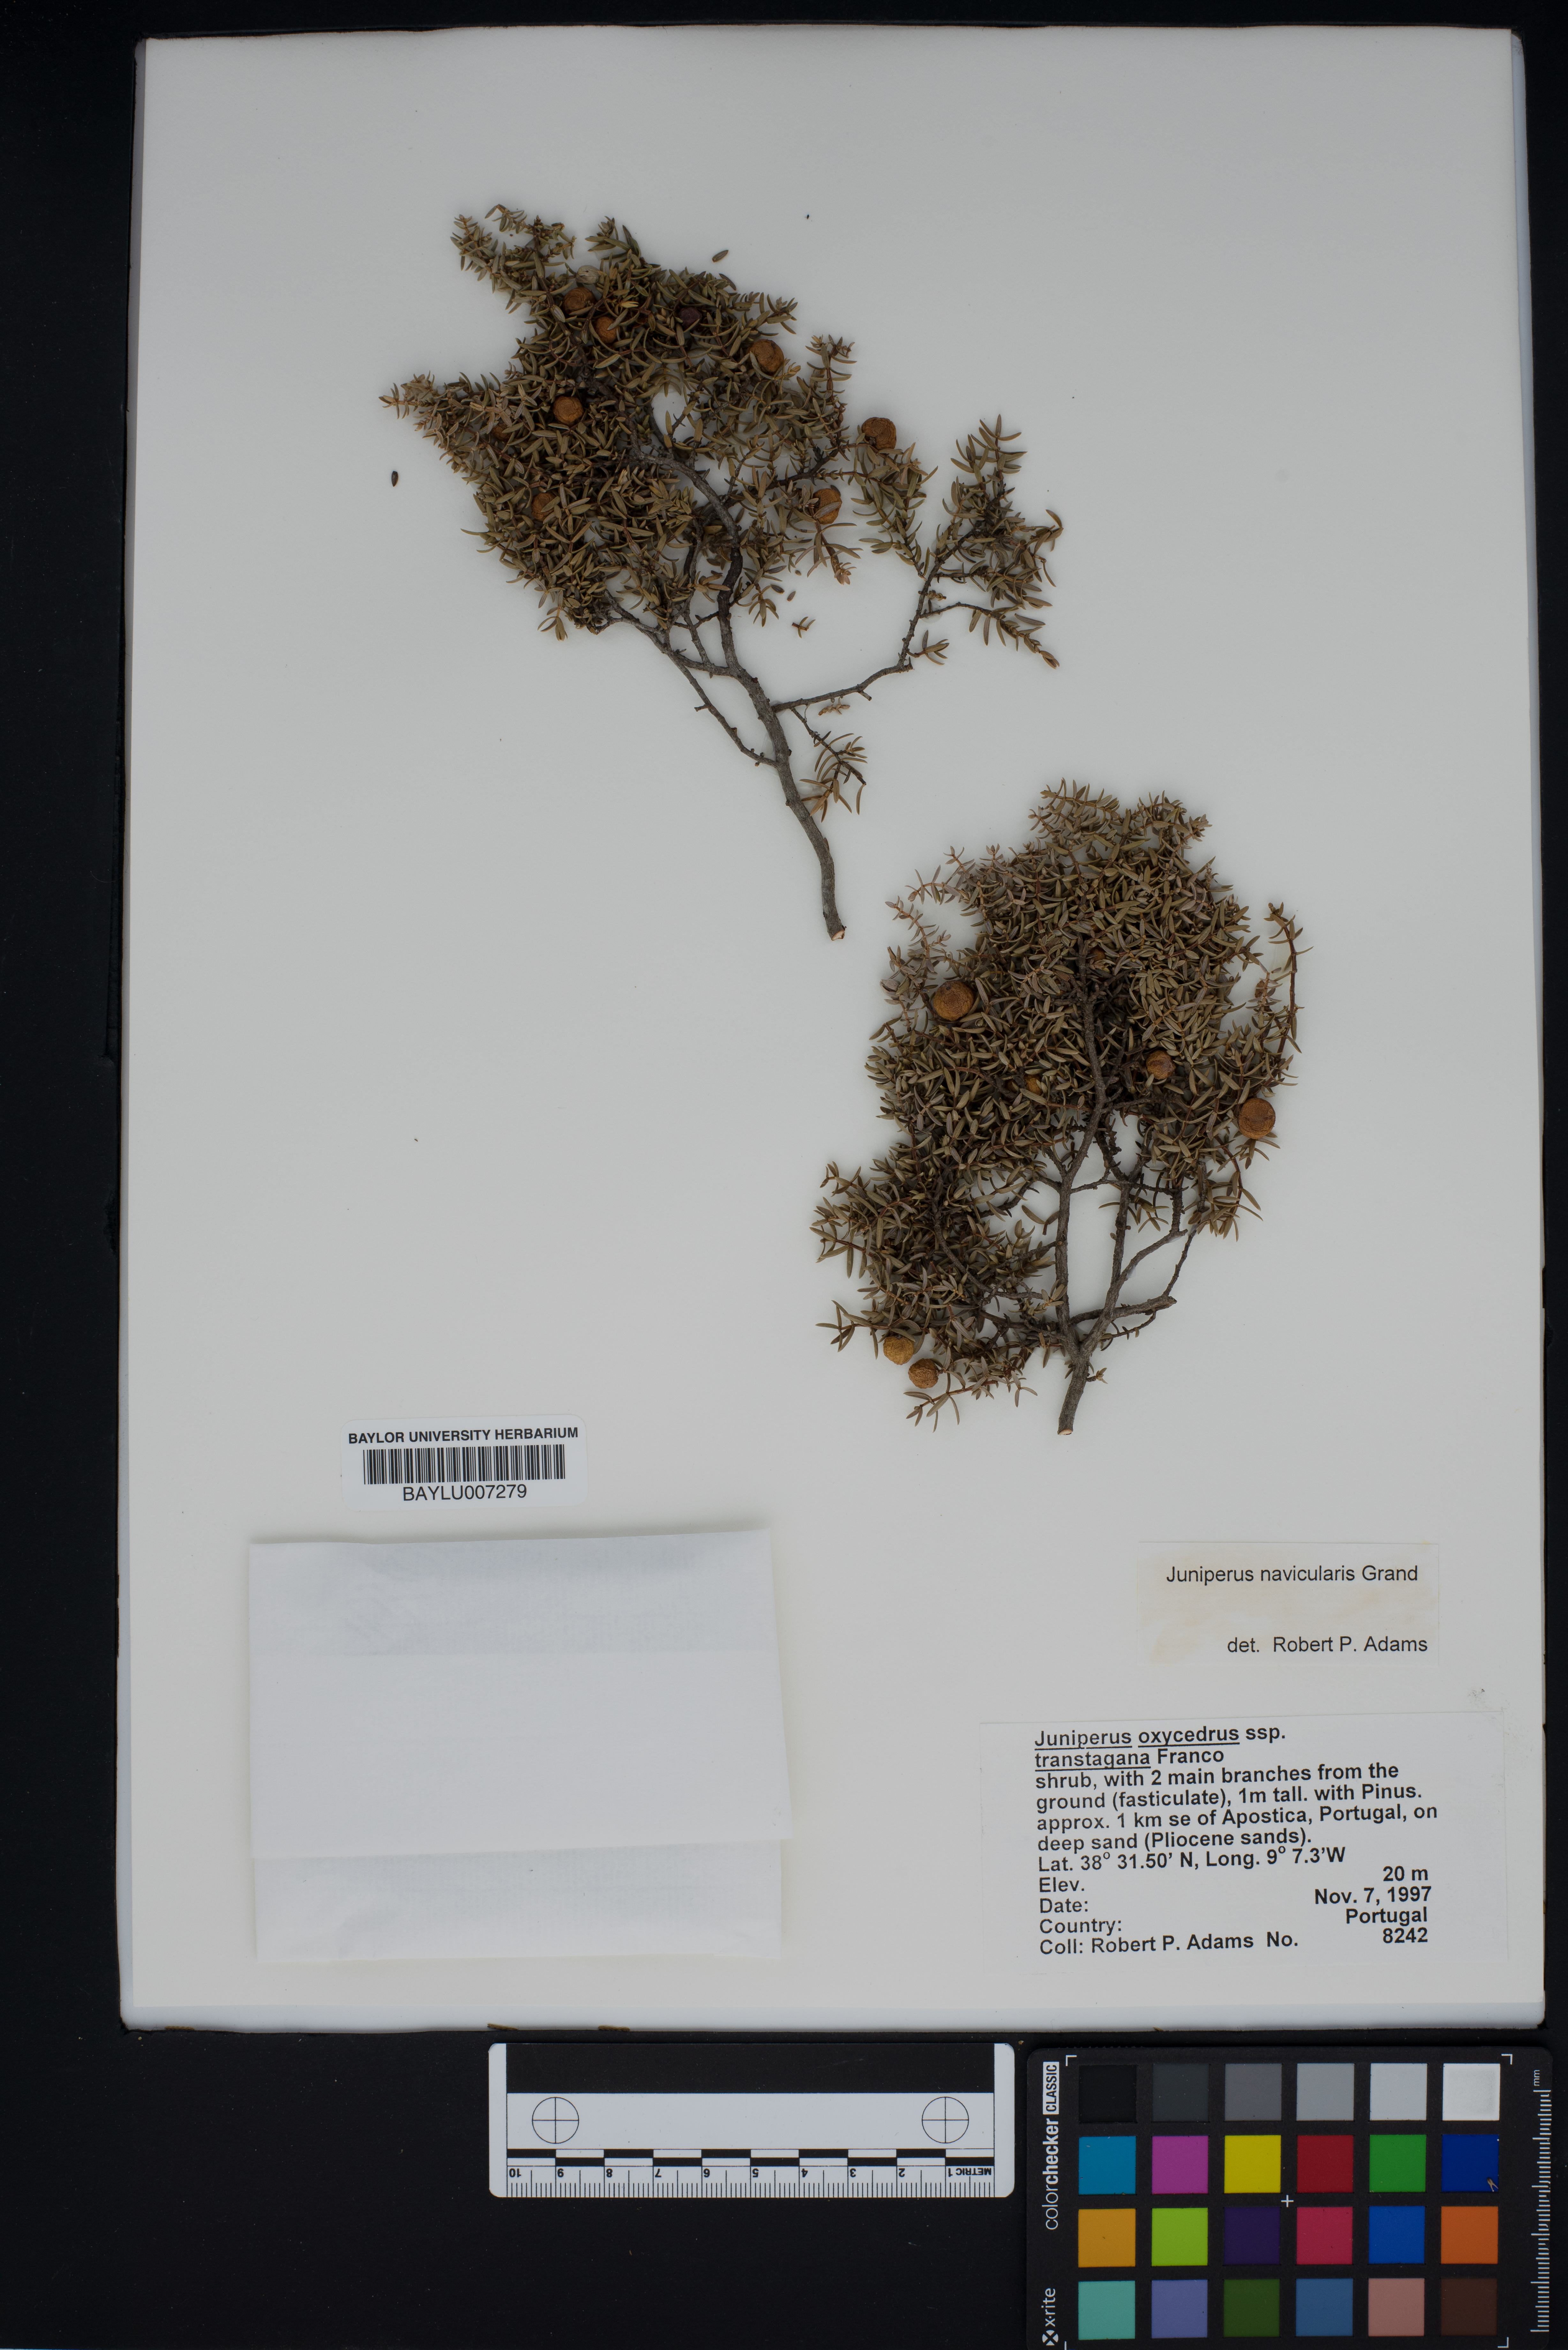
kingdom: Plantae
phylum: Tracheophyta
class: Pinopsida
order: Pinales
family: Cupressaceae
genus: Juniperus
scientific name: Juniperus oxycedrus
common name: Prickly juniper
